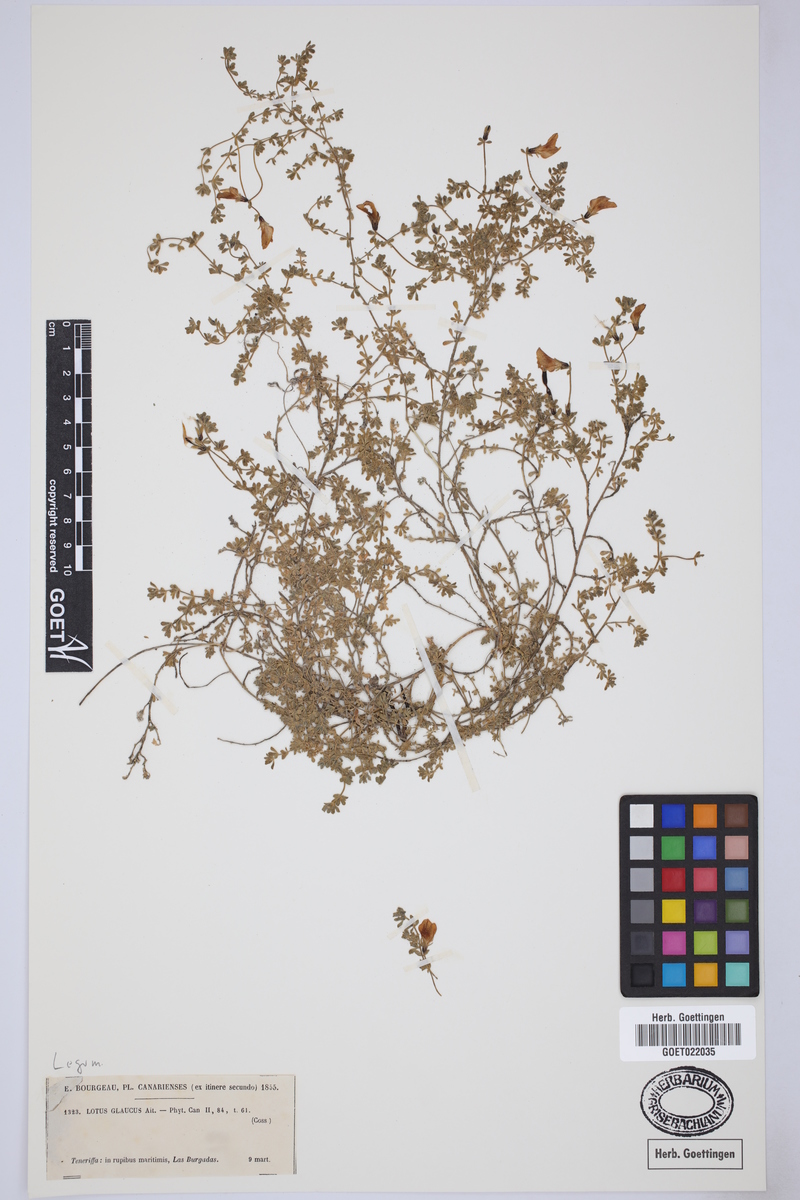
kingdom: Plantae
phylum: Tracheophyta
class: Magnoliopsida
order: Fabales
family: Fabaceae
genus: Lotus
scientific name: Lotus glaucus
